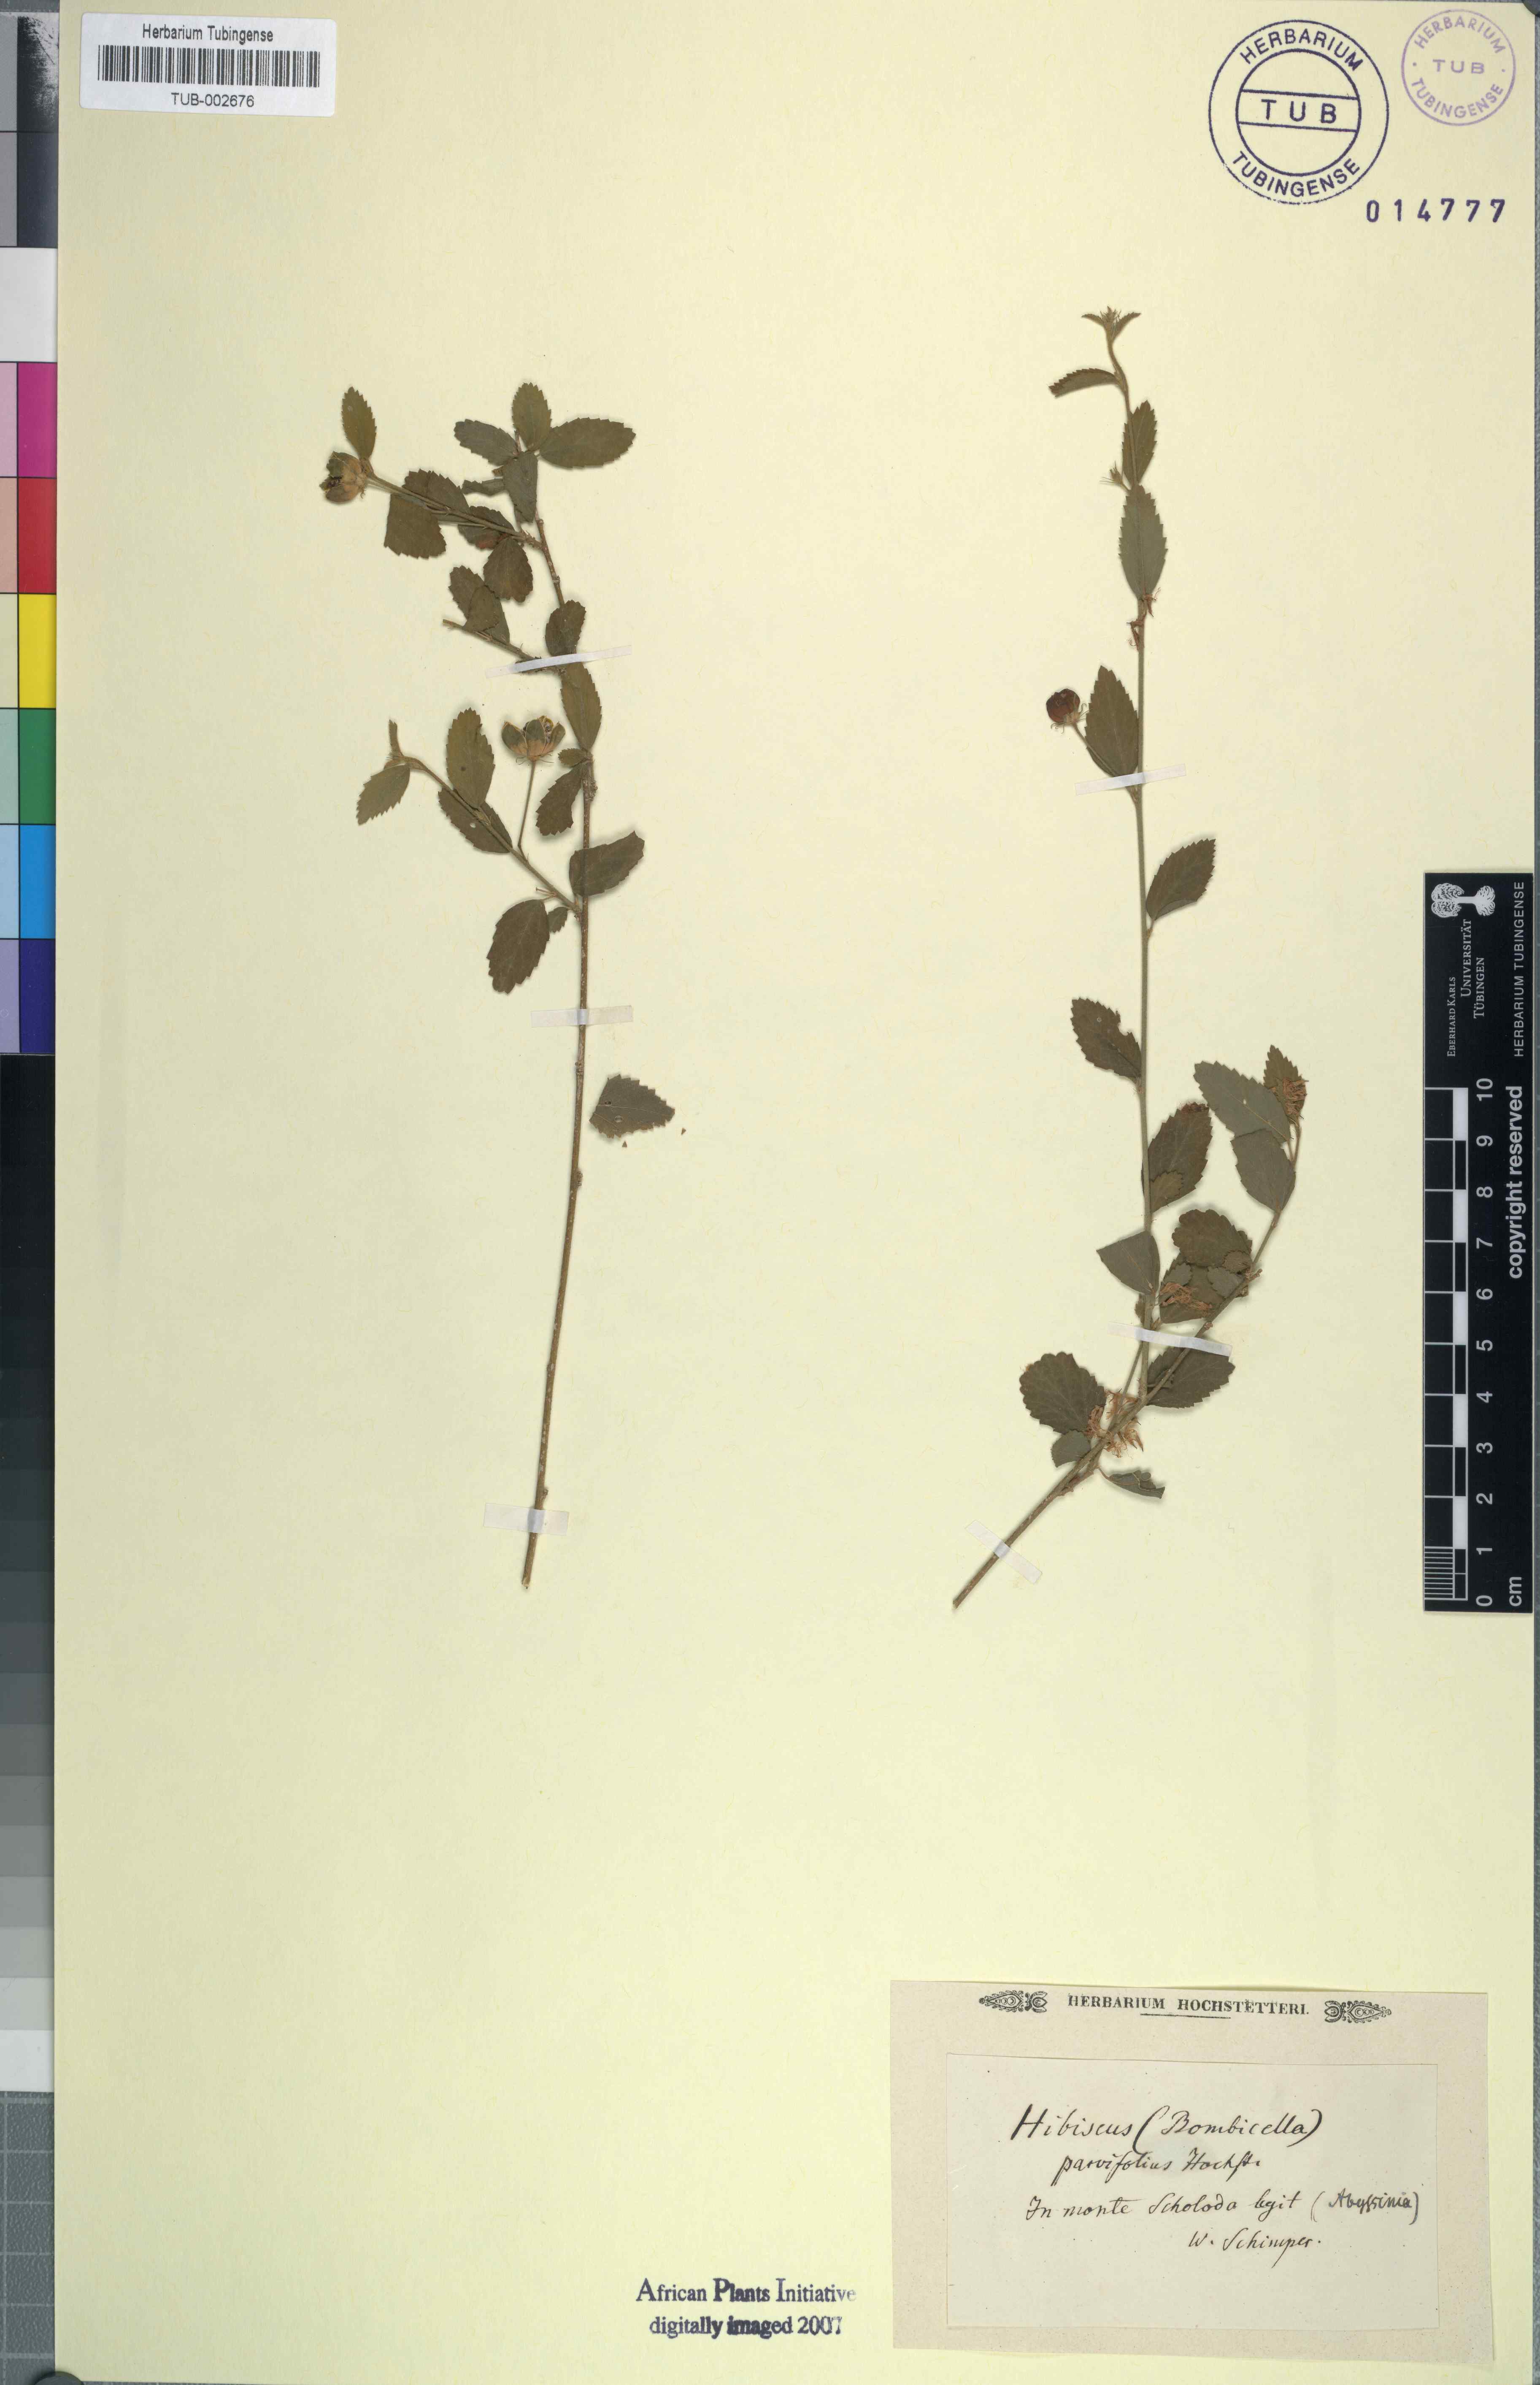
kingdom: Plantae
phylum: Tracheophyta
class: Magnoliopsida
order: Malvales
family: Malvaceae
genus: Hibiscus
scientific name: Hibiscus micranthus
